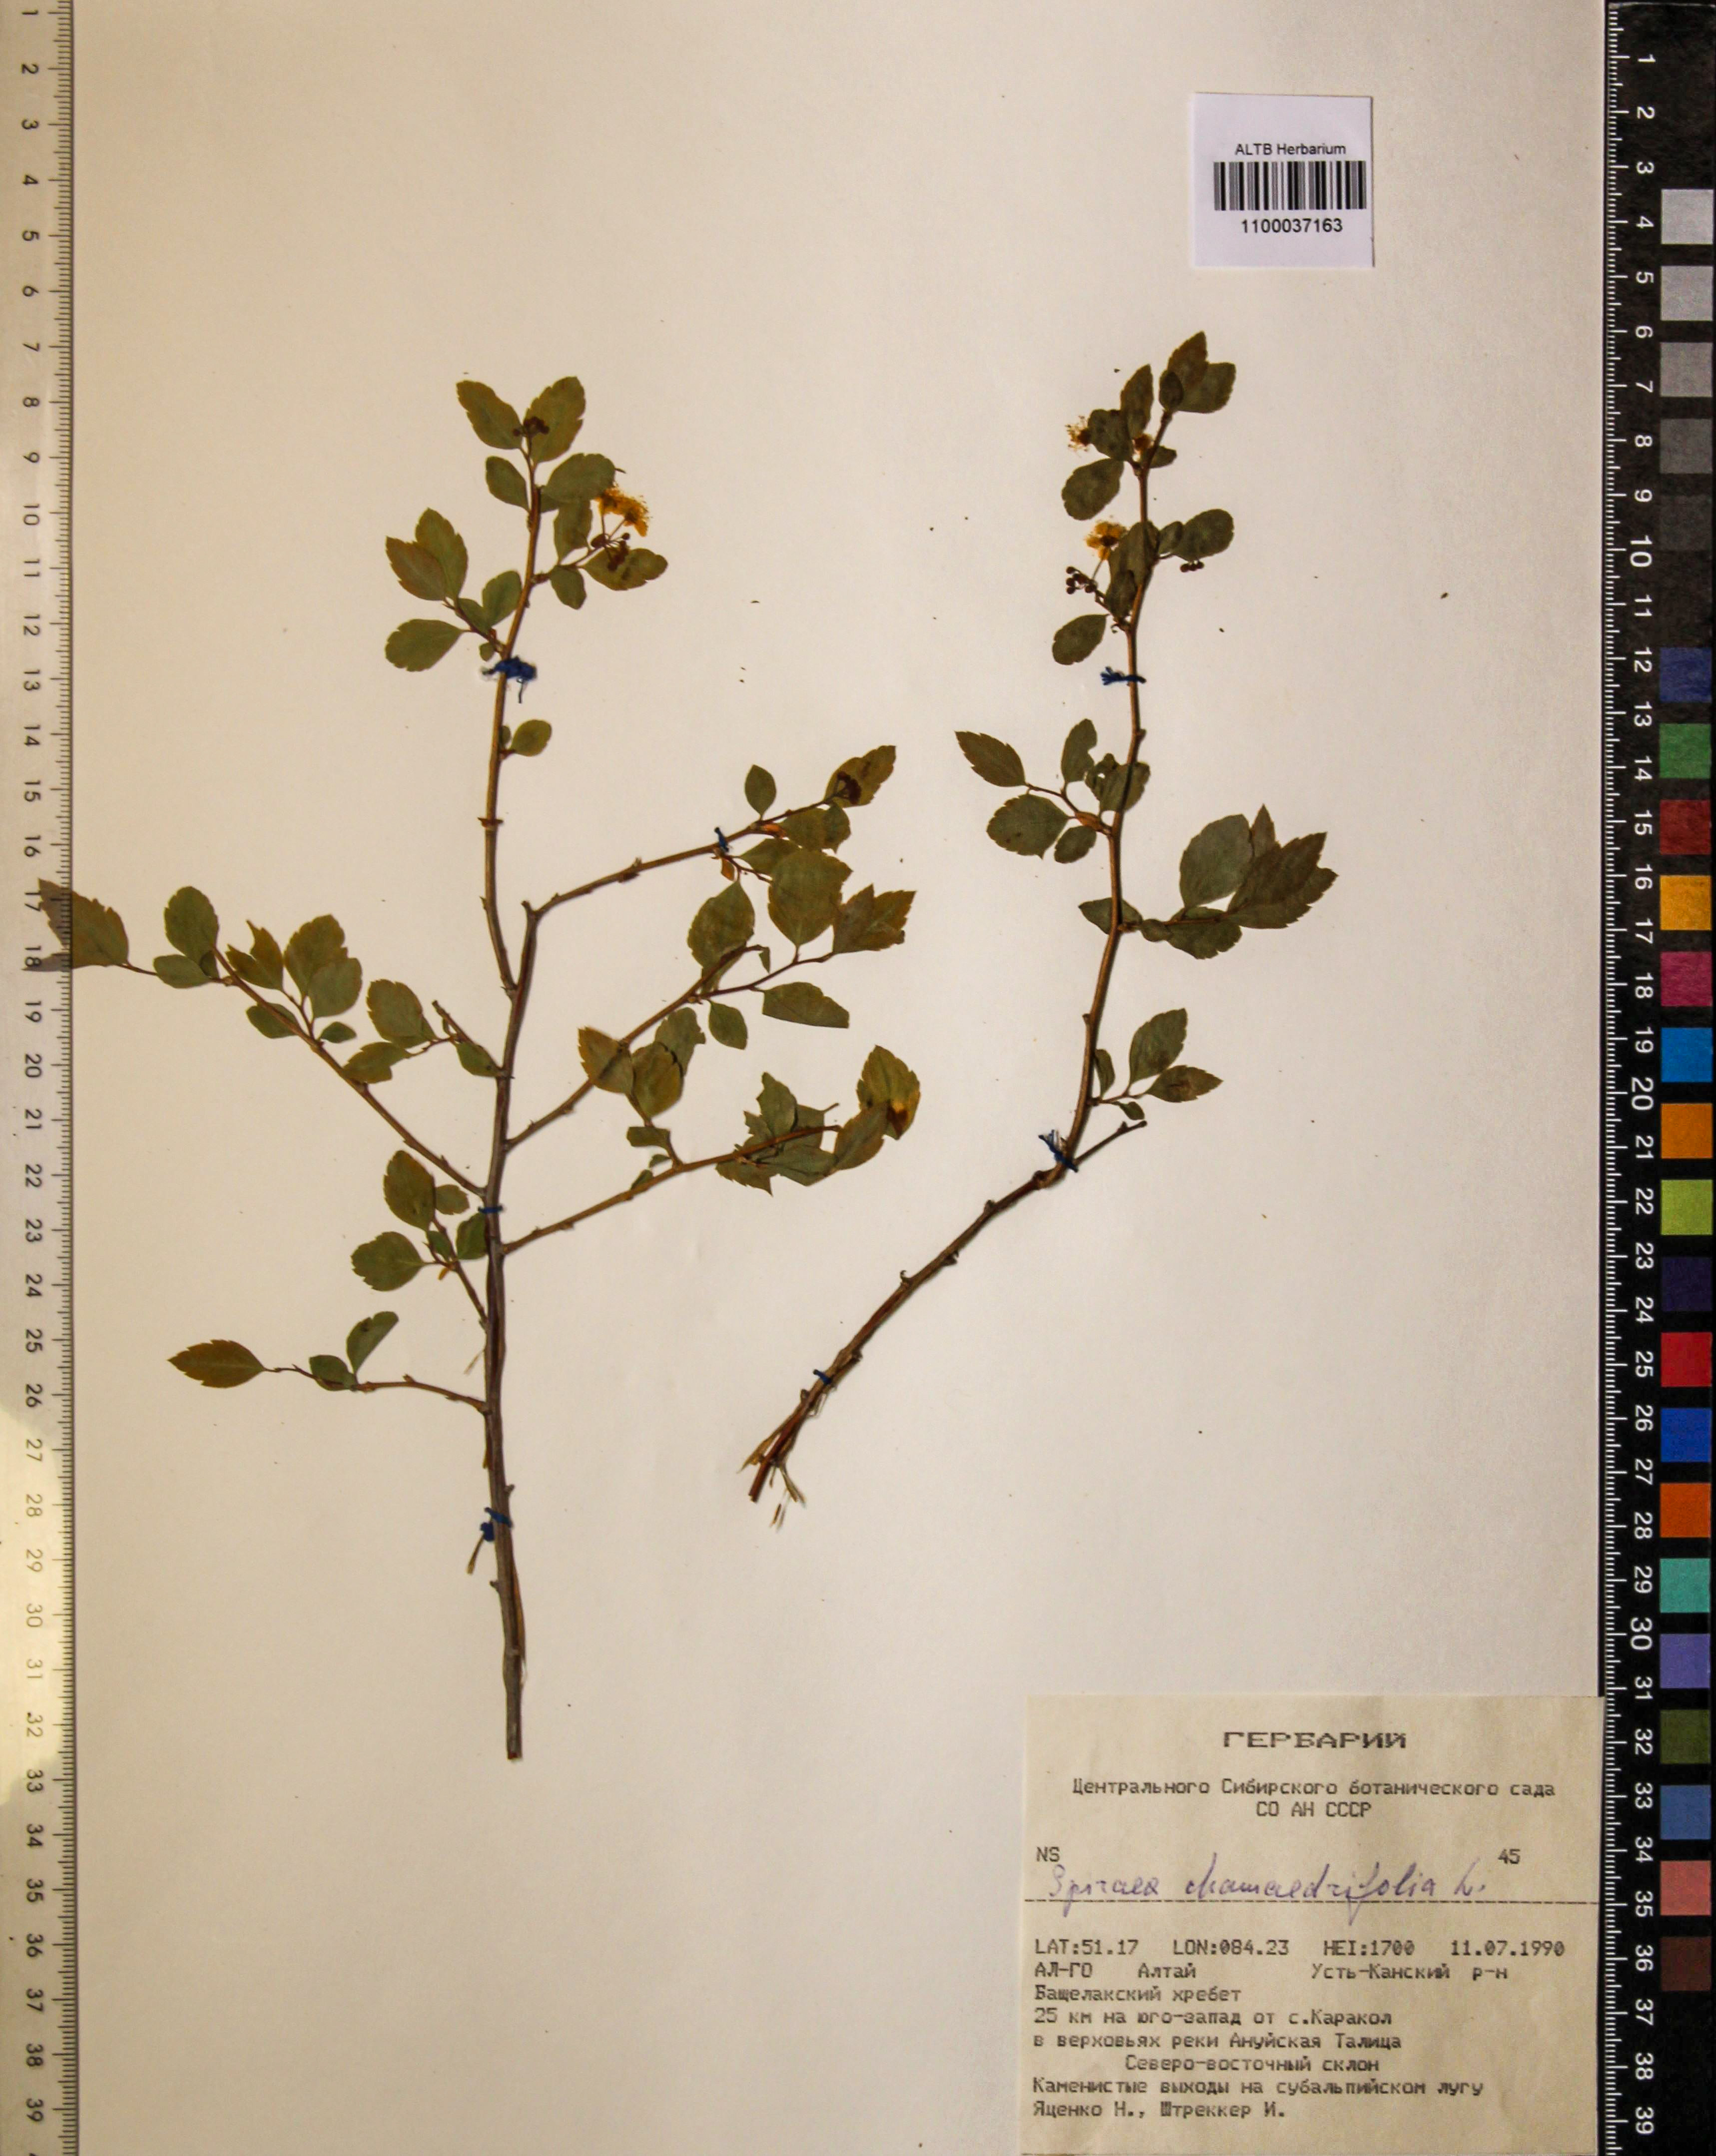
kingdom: Plantae
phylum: Tracheophyta
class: Magnoliopsida
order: Rosales
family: Rosaceae
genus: Spiraea
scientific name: Spiraea chamaedryfolia
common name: Elm-leaved spiraea
